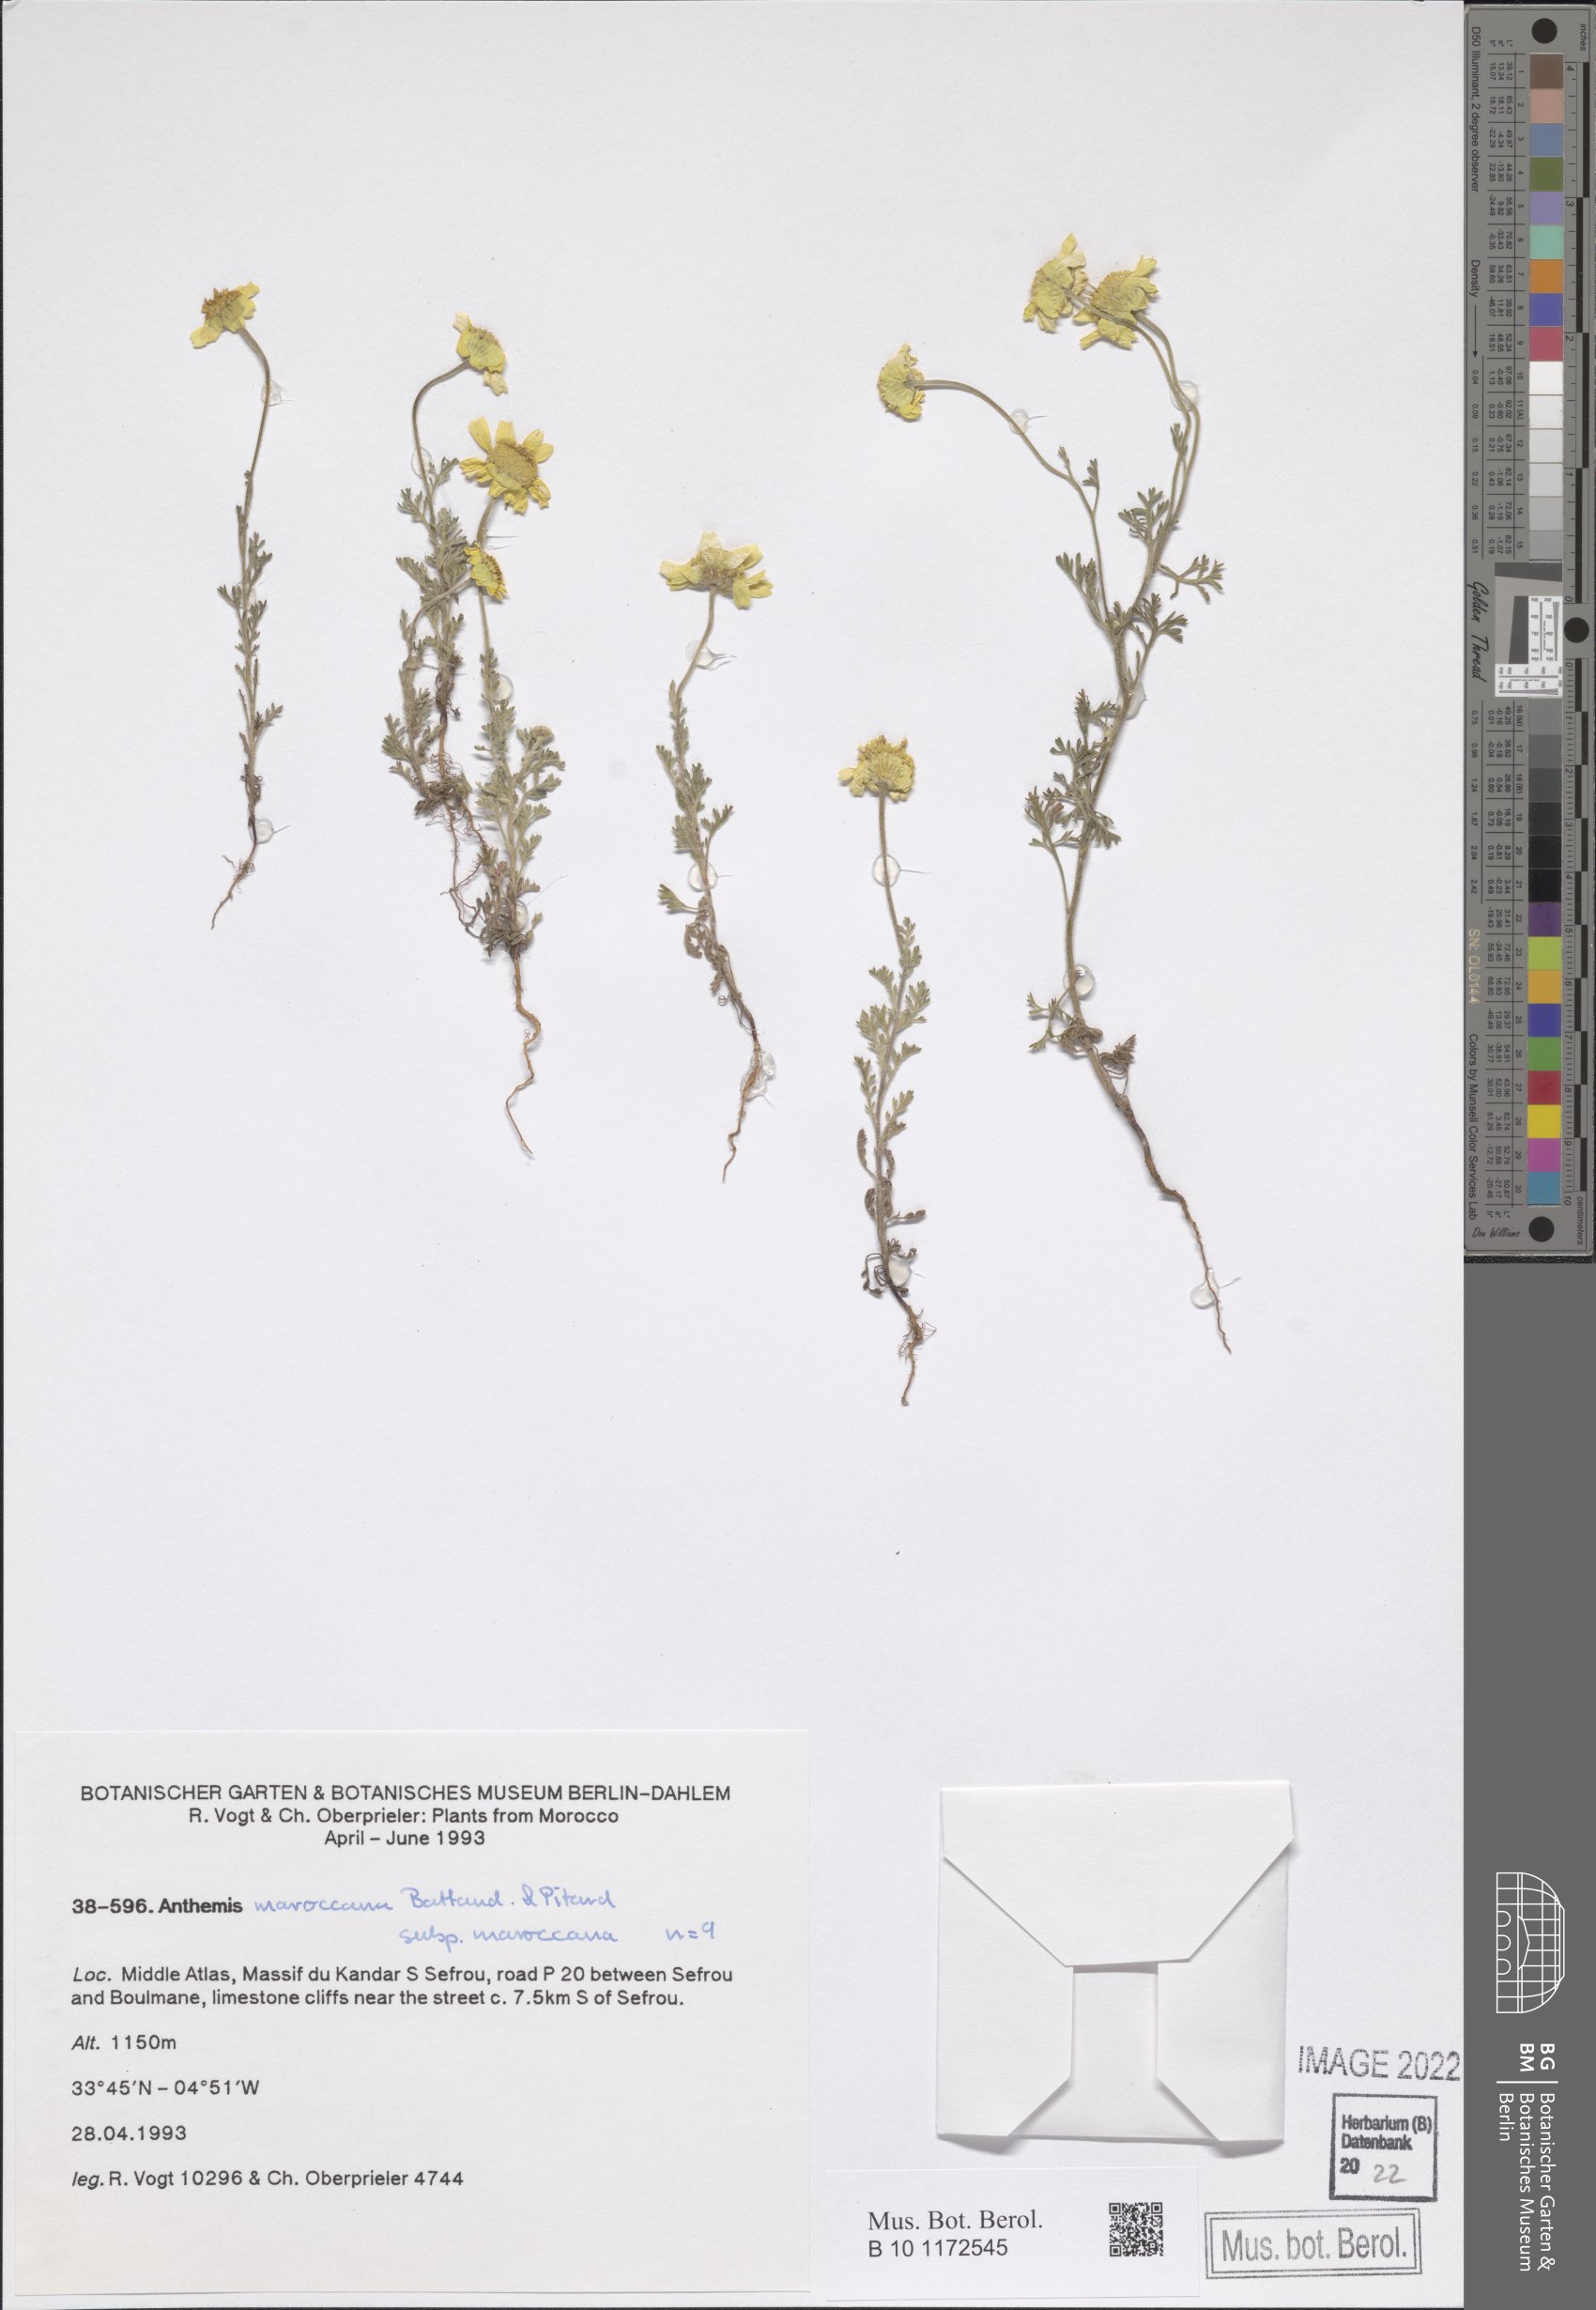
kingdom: Plantae
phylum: Tracheophyta
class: Magnoliopsida
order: Asterales
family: Asteraceae
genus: Anthemis
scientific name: Anthemis marocana
